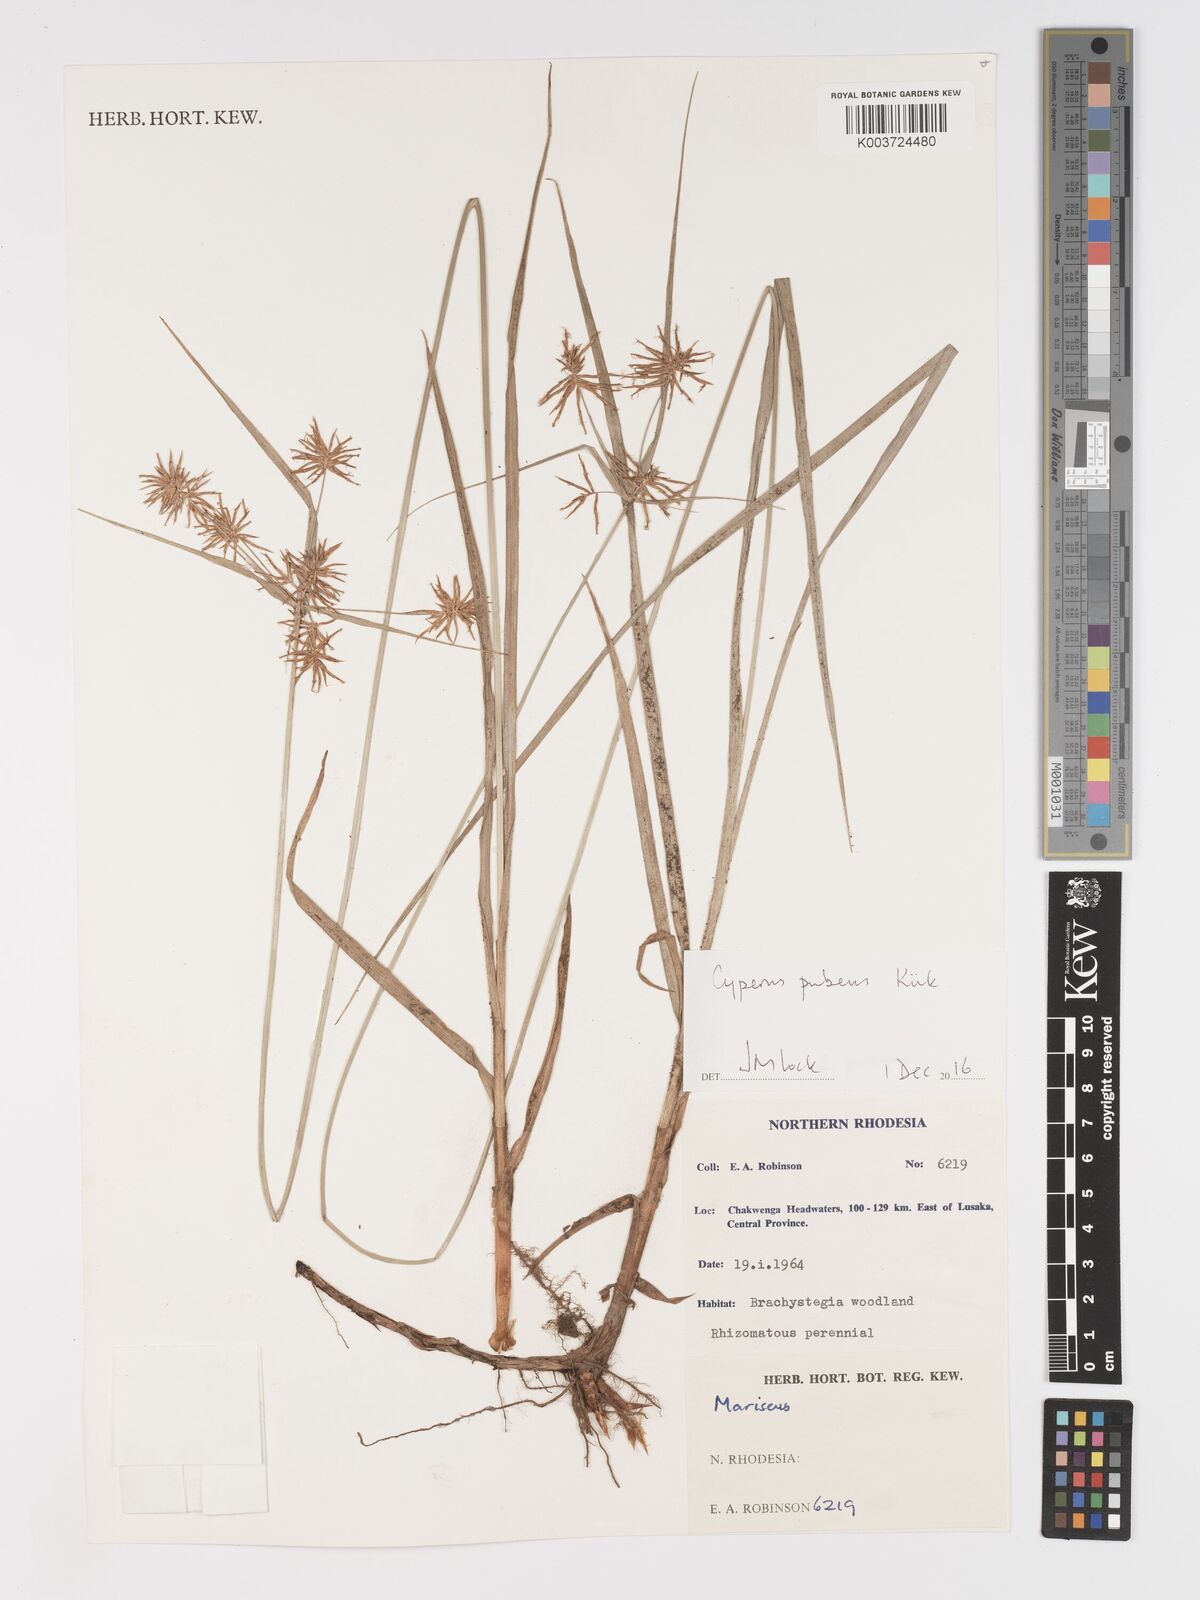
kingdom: Plantae
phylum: Tracheophyta
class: Liliopsida
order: Poales
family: Cyperaceae
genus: Cyperus
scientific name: Cyperus pubens
